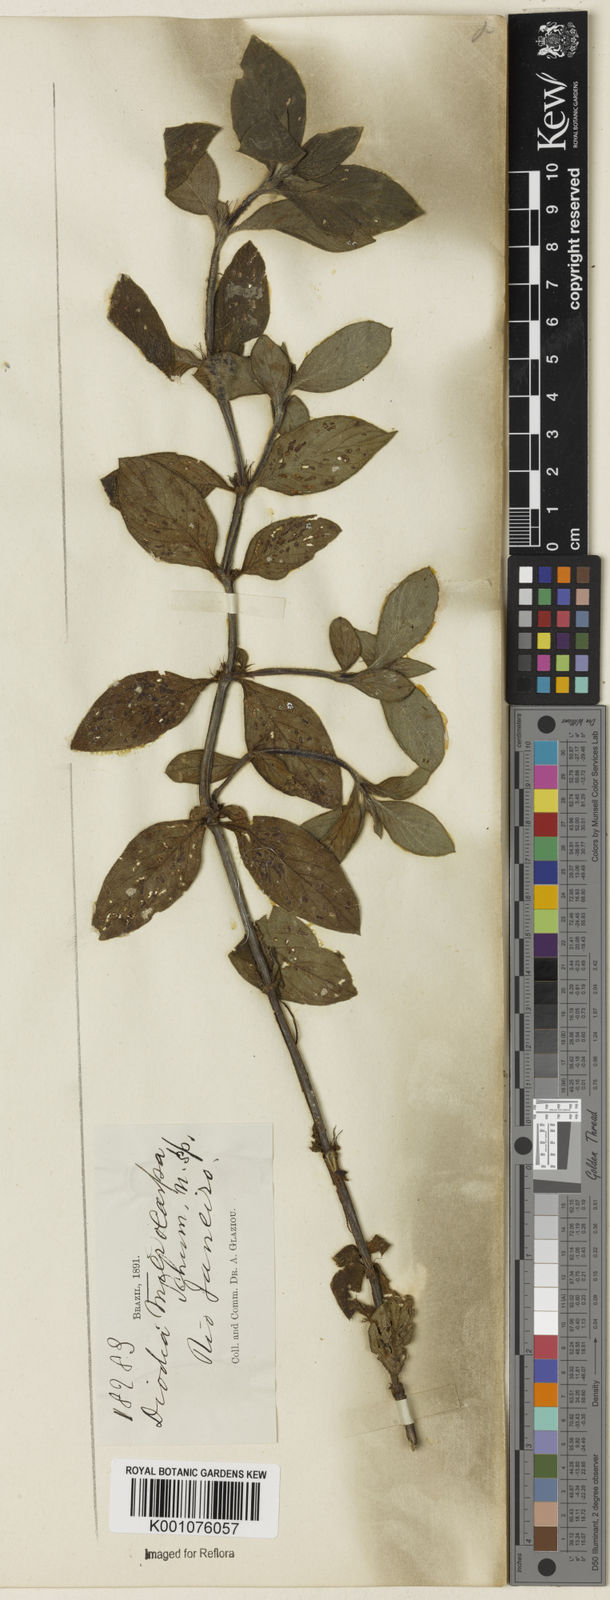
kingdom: Plantae
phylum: Tracheophyta
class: Magnoliopsida
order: Gentianales
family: Rubiaceae
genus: Diodia
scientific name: Diodia microcarpa
